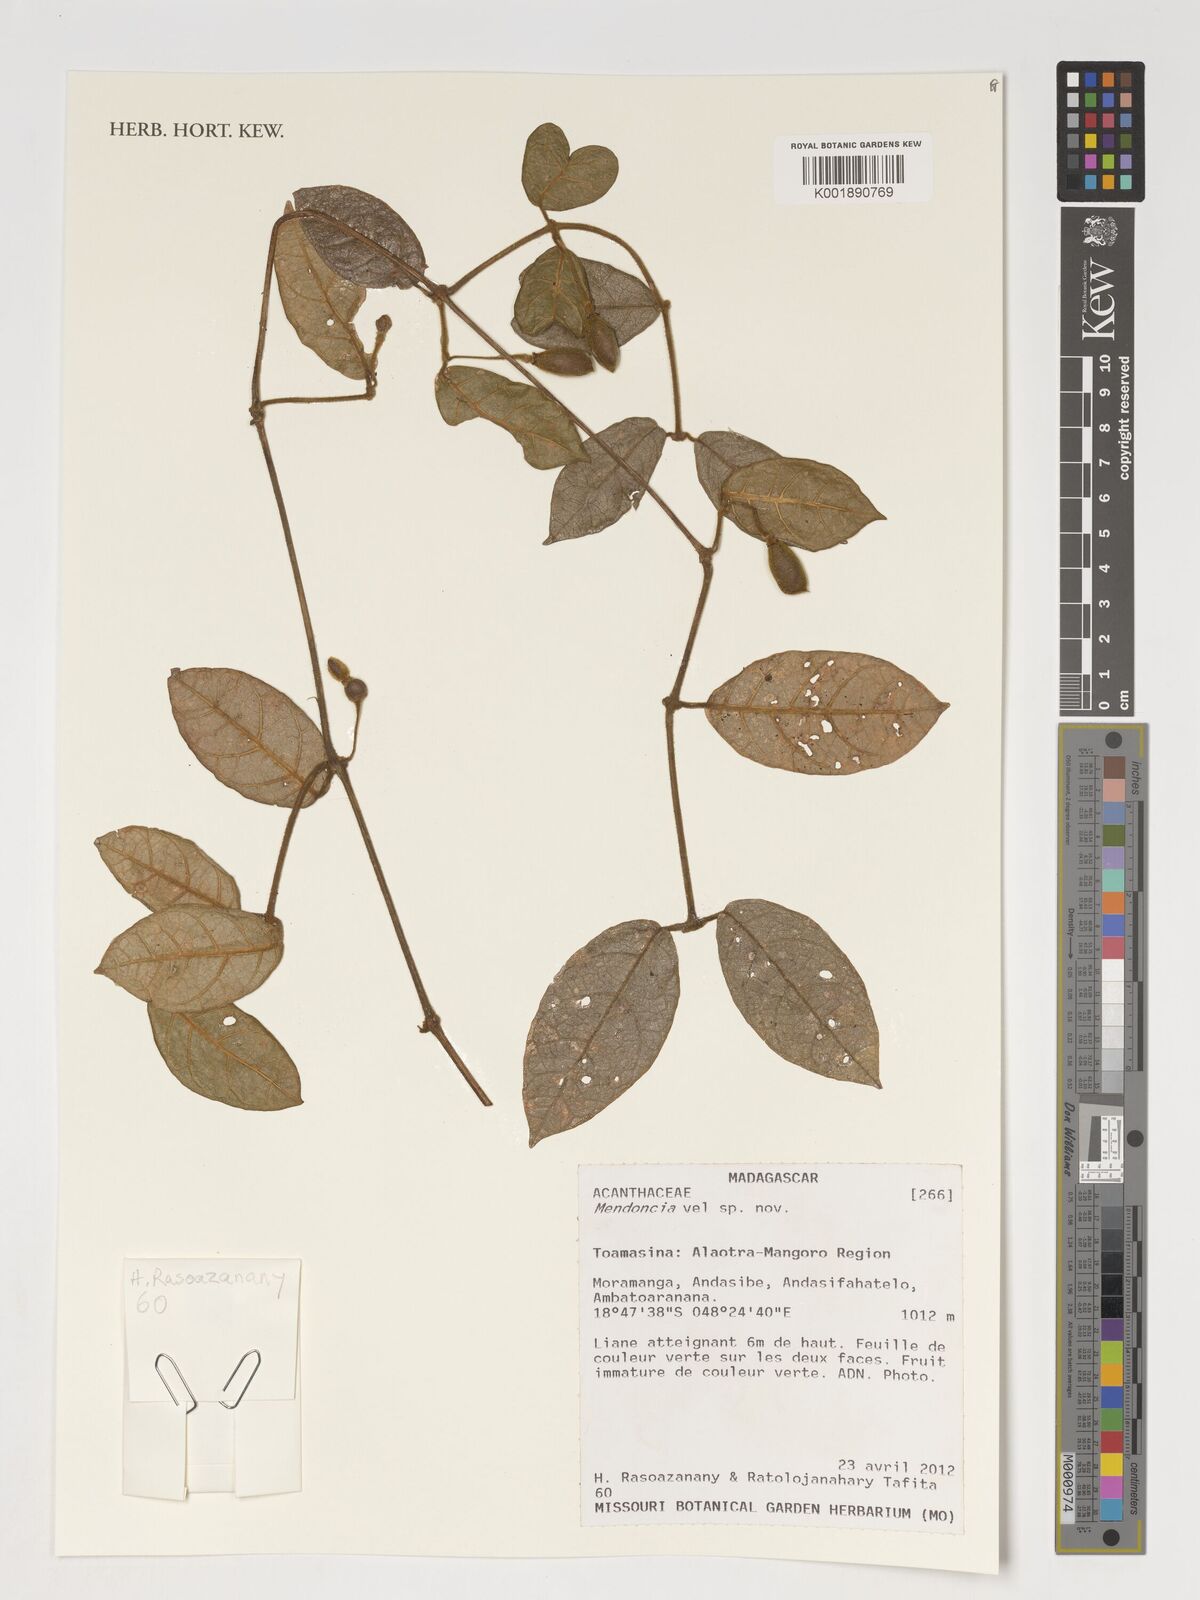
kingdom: Plantae
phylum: Tracheophyta
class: Magnoliopsida
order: Lamiales
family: Acanthaceae
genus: Mendoncia
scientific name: Mendoncia
